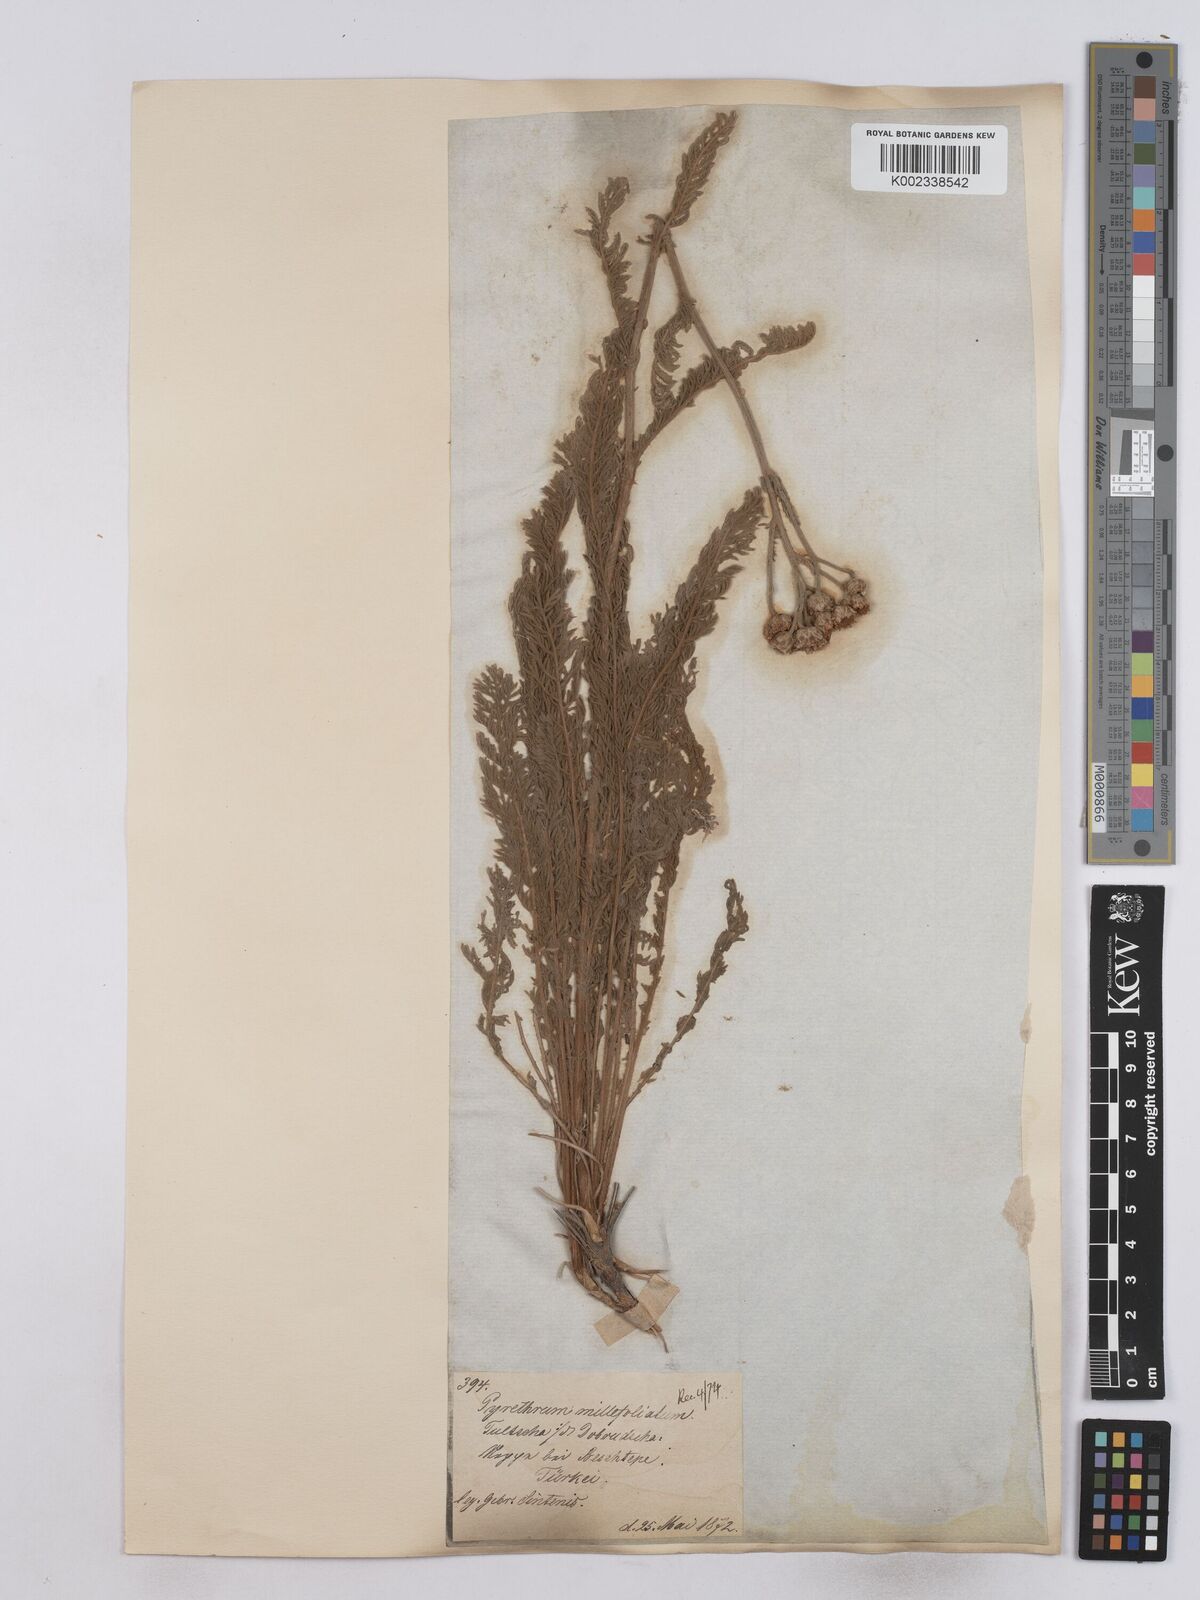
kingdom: Plantae
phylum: Tracheophyta
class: Magnoliopsida
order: Asterales
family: Asteraceae
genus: Tanacetum
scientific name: Tanacetum millefolium
